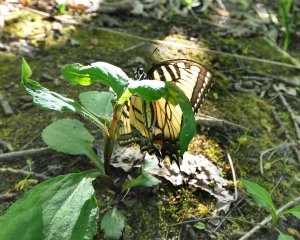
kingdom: Animalia
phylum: Arthropoda
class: Insecta
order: Lepidoptera
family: Papilionidae
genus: Pterourus
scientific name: Pterourus glaucus
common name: Eastern Tiger Swallowtail
